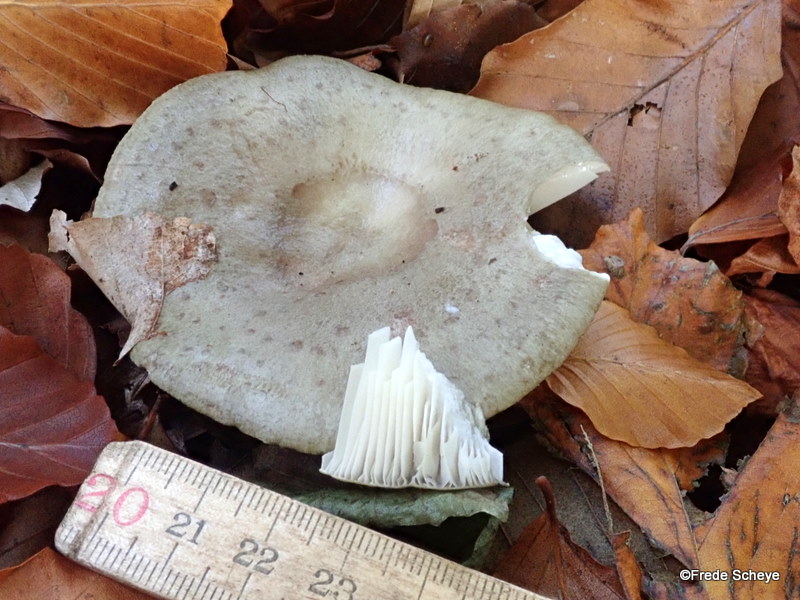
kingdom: Fungi
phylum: Basidiomycota
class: Agaricomycetes
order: Russulales
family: Russulaceae
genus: Lactarius
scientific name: Lactarius blennius
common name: dråbeplettet mælkehat
